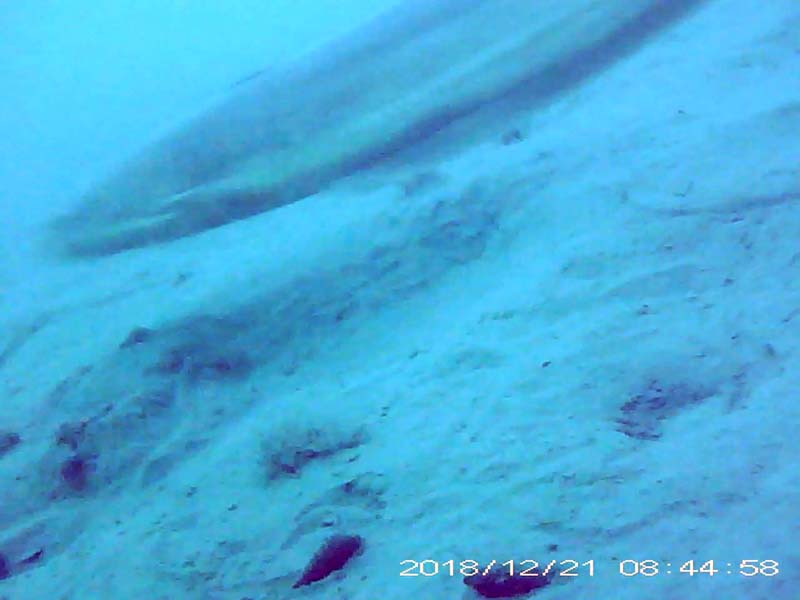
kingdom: Animalia
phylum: Chordata
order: Siluriformes
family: Siluridae
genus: Silurus
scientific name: Silurus
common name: ナマズ
